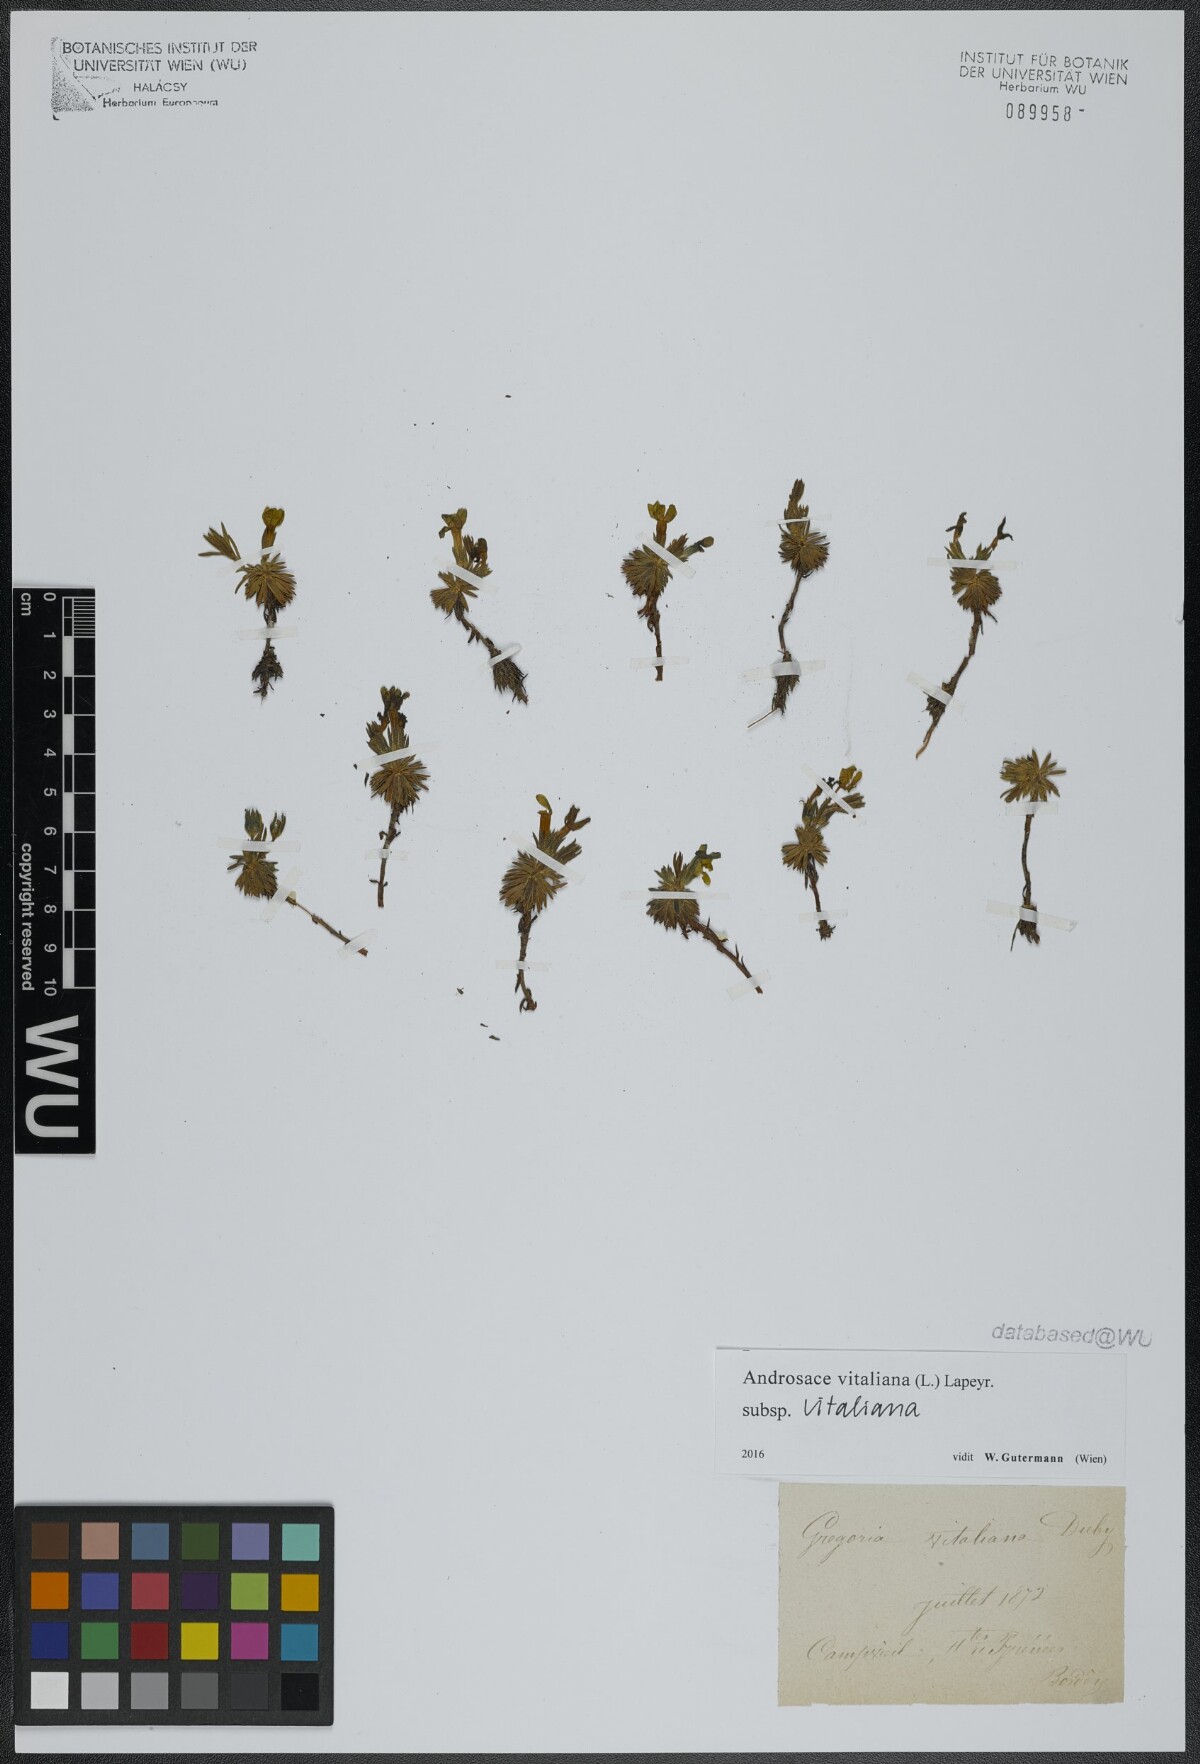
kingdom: Plantae
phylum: Tracheophyta
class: Magnoliopsida
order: Ericales
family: Primulaceae
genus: Androsace
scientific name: Androsace vitaliana
